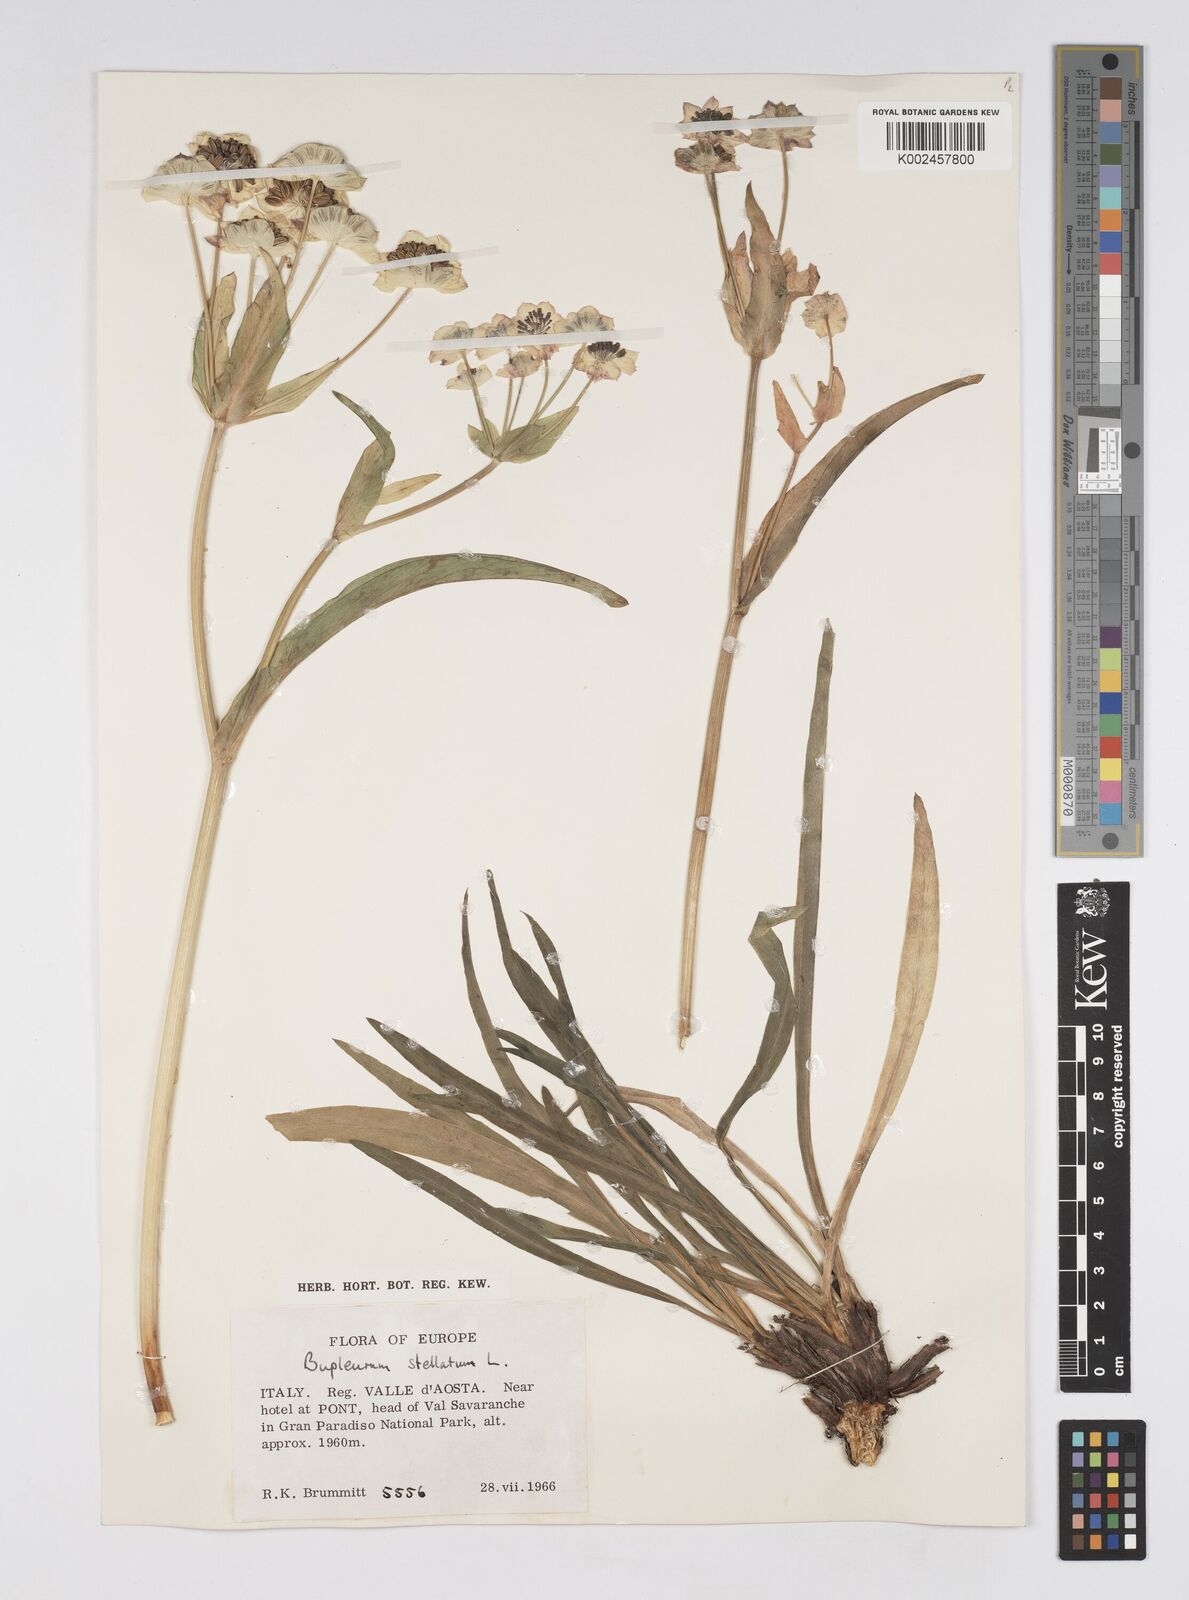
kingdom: Plantae
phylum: Tracheophyta
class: Magnoliopsida
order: Apiales
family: Apiaceae
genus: Bupleurum
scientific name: Bupleurum stellatum
